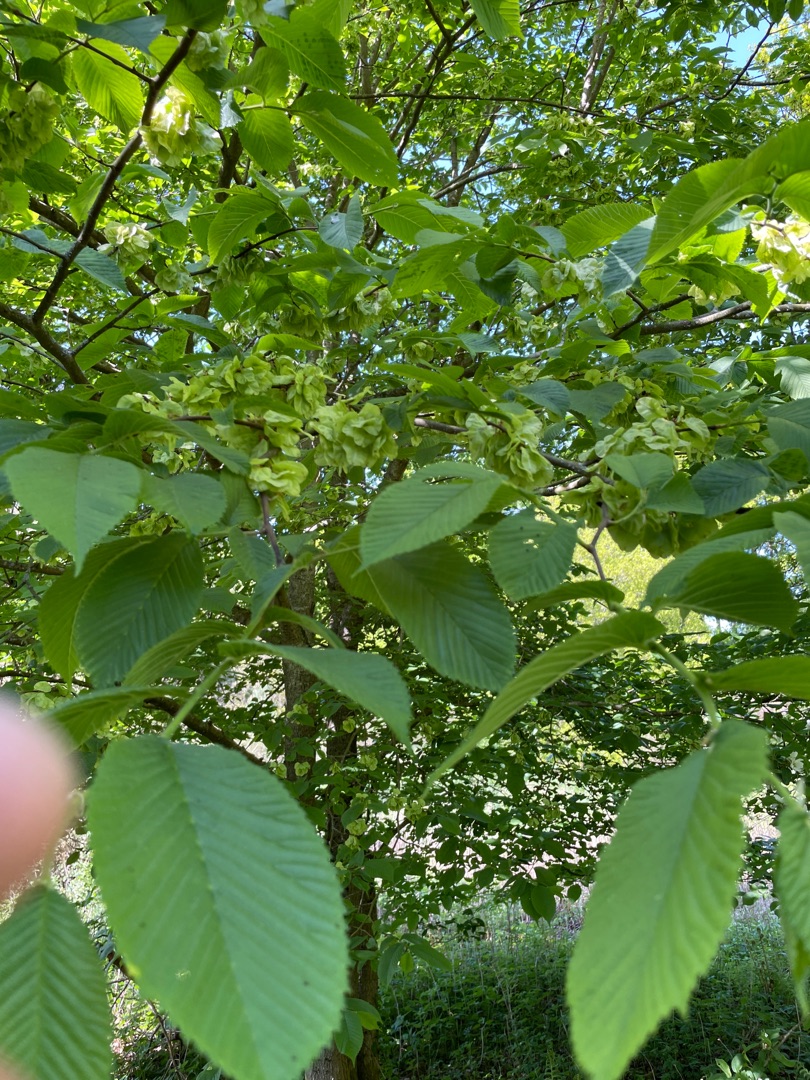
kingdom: Plantae
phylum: Tracheophyta
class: Magnoliopsida
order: Rosales
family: Ulmaceae
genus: Ulmus
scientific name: Ulmus glabra
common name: Skov-elm/storbladet elm
